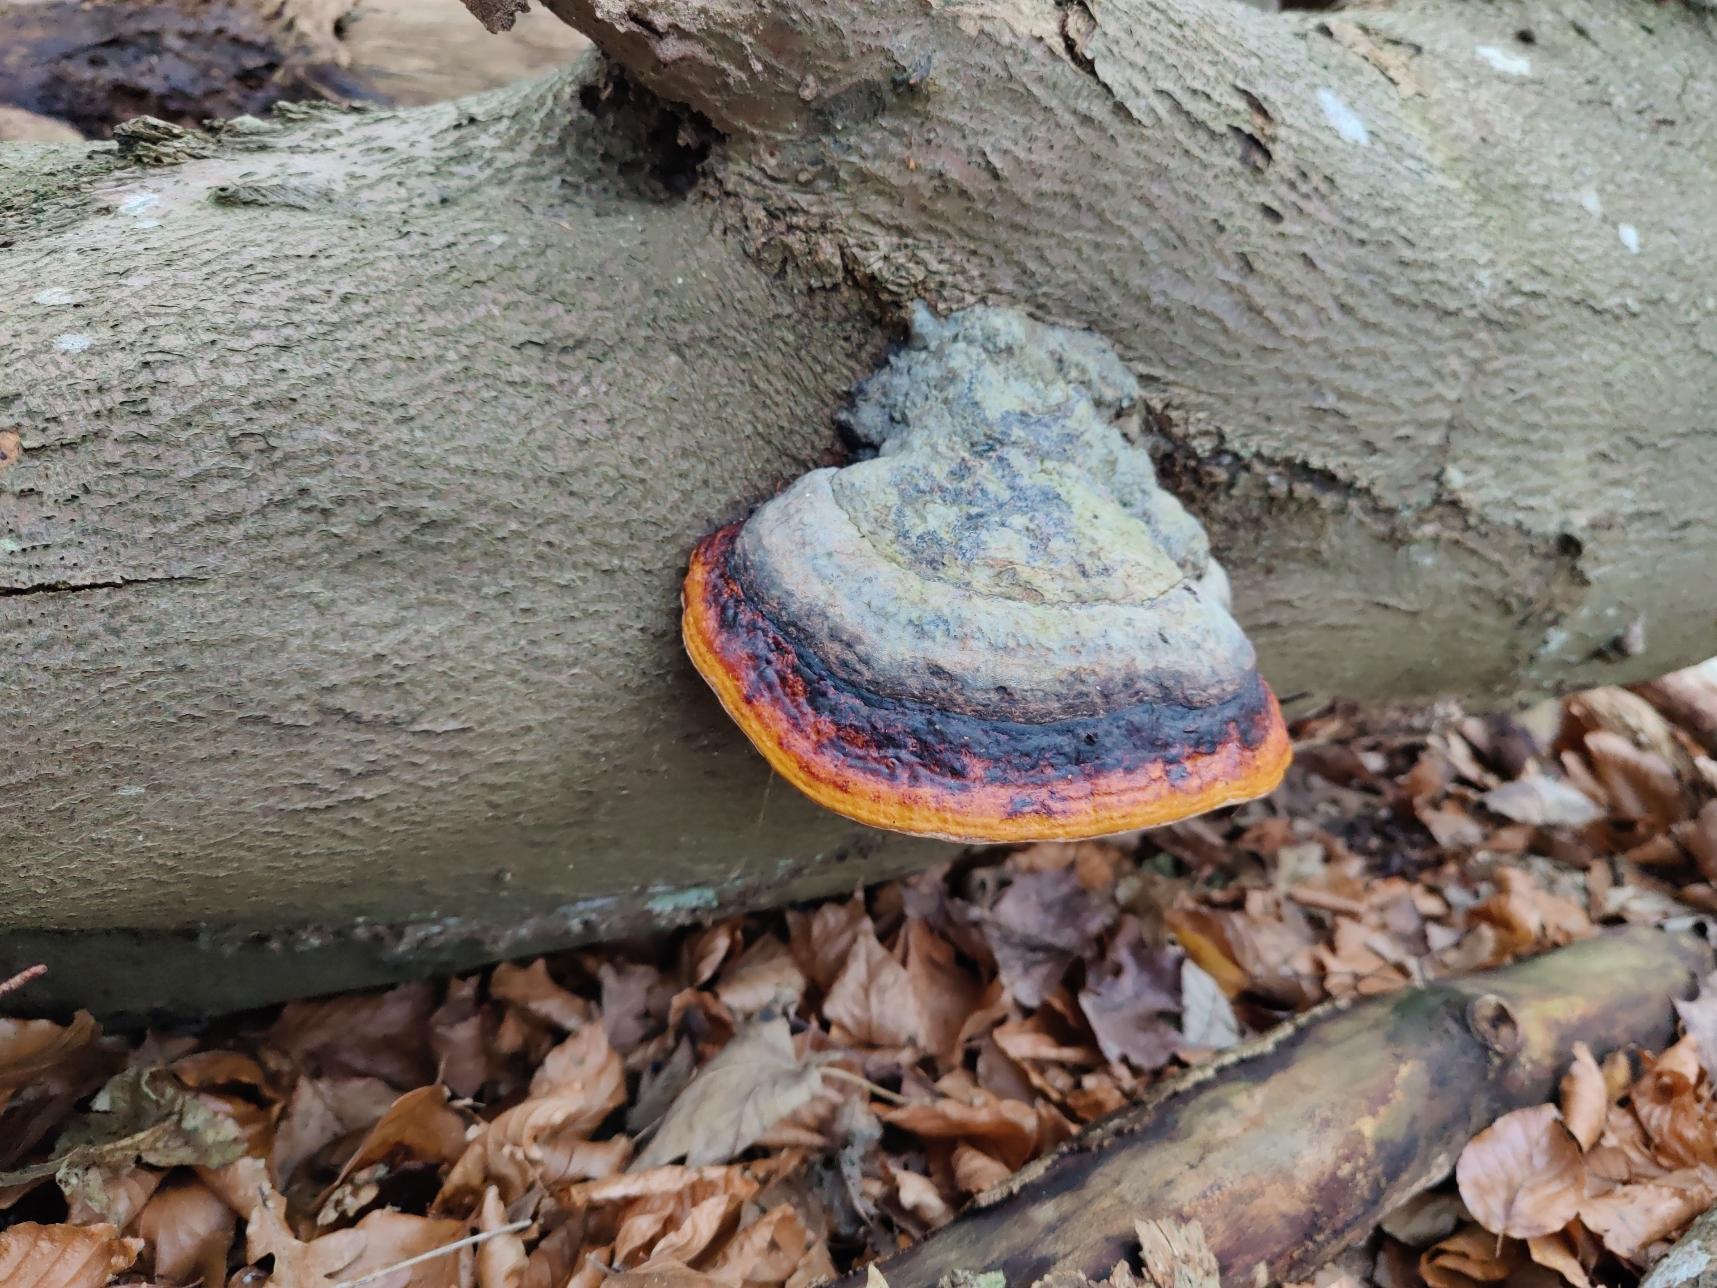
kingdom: Fungi
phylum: Basidiomycota
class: Agaricomycetes
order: Polyporales
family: Fomitopsidaceae
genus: Fomitopsis
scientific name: Fomitopsis pinicola
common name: Randbæltet hovporesvamp
